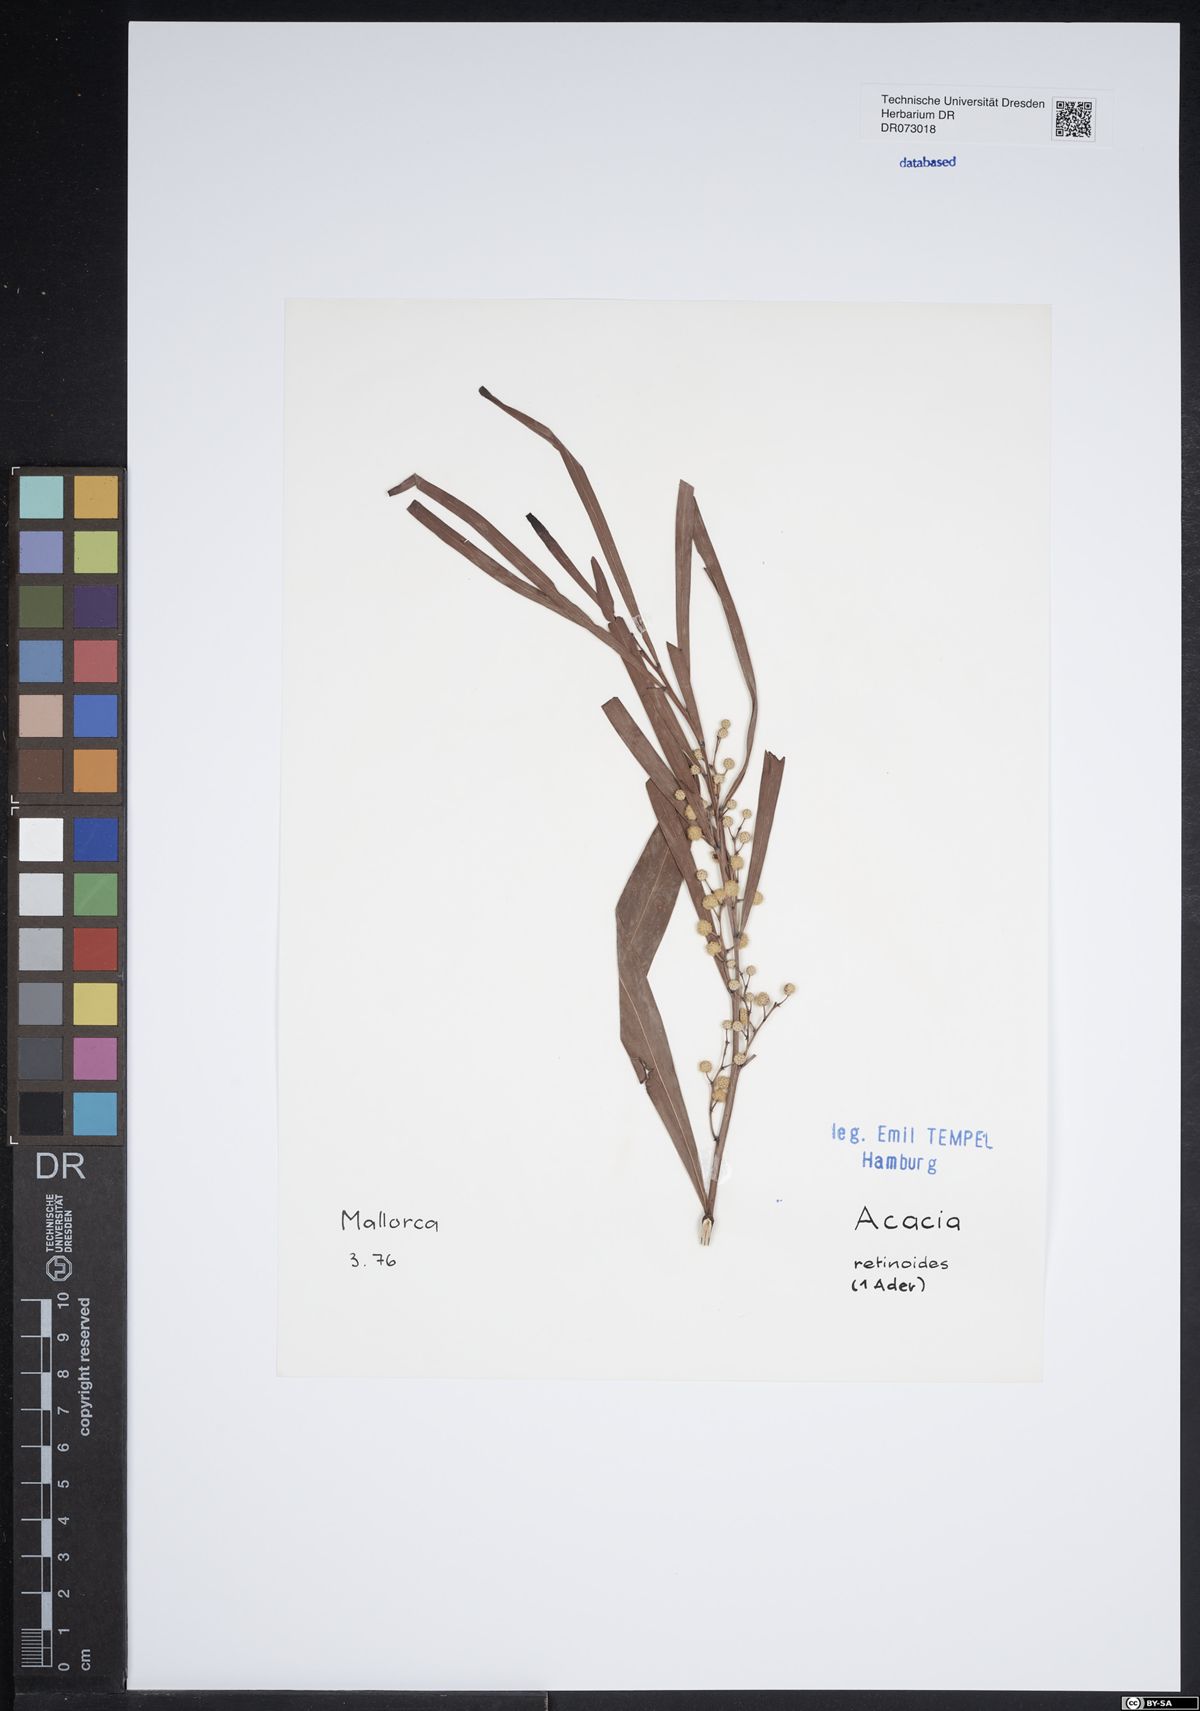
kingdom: Plantae
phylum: Tracheophyta
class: Magnoliopsida
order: Fabales
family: Fabaceae
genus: Acacia
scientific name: Acacia retinodes
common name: Silver wattle
